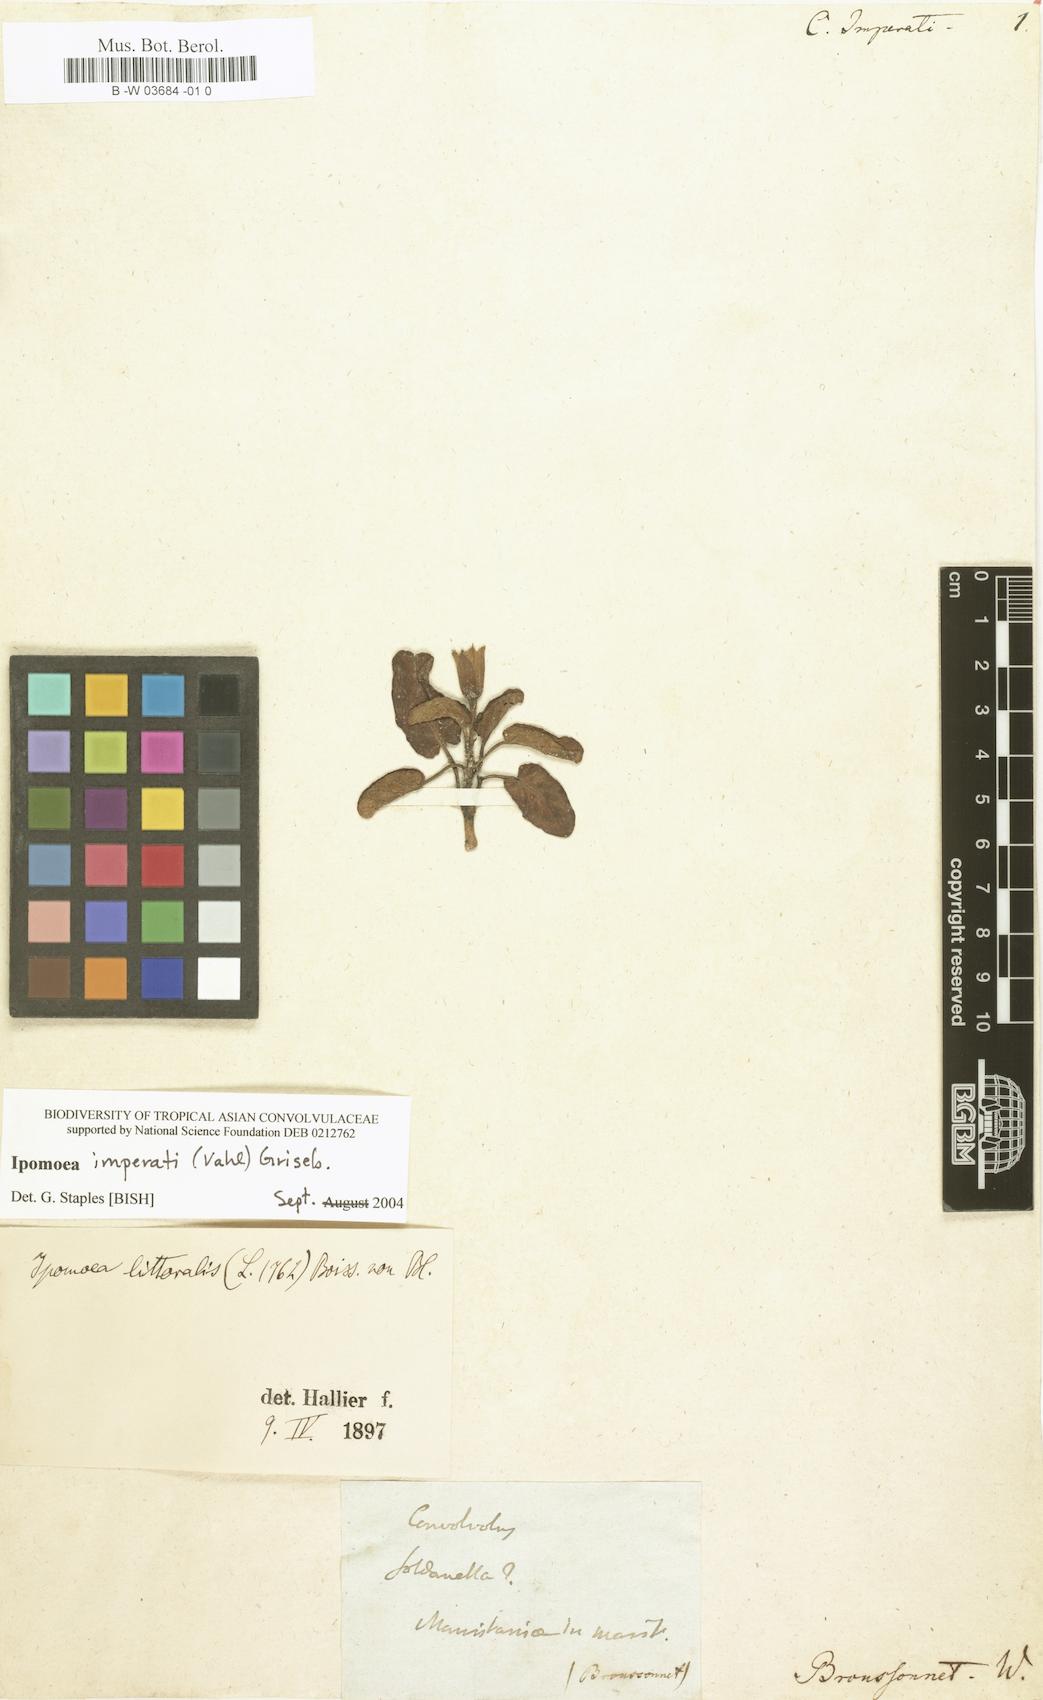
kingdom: Plantae
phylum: Tracheophyta
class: Magnoliopsida
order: Solanales
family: Convolvulaceae
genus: Ipomoea
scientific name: Ipomoea imperati
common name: Fiddle-leaf morning-glory
